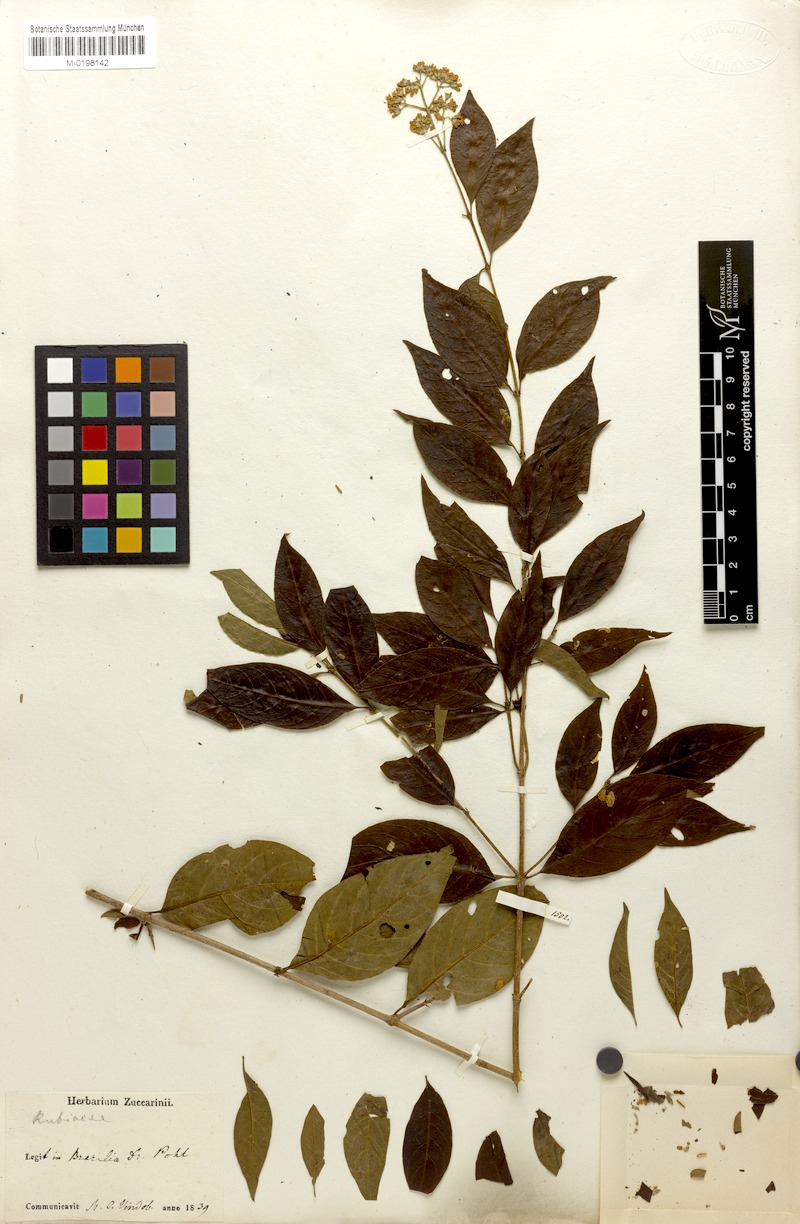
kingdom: Plantae
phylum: Tracheophyta
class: Magnoliopsida
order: Gentianales
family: Rubiaceae
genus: Machaonia
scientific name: Machaonia brasiliensis
